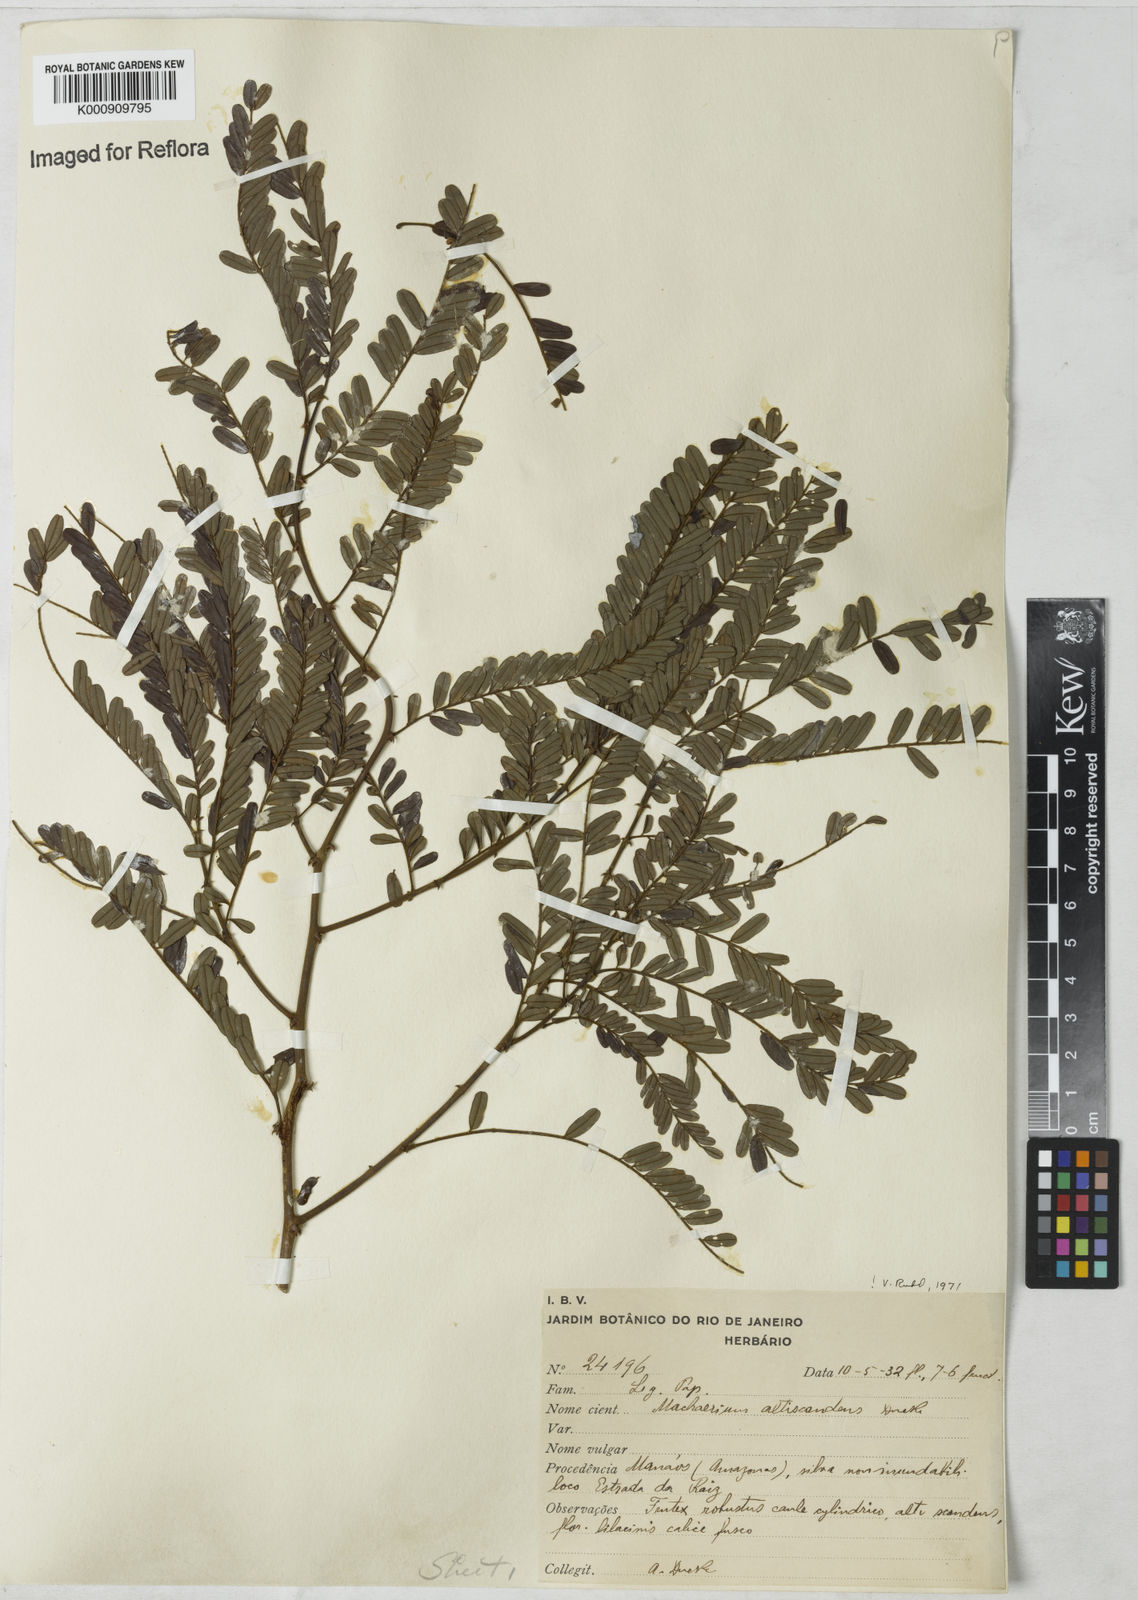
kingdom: Plantae
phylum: Tracheophyta
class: Magnoliopsida
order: Fabales
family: Fabaceae
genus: Machaerium
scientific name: Machaerium isadelphum
